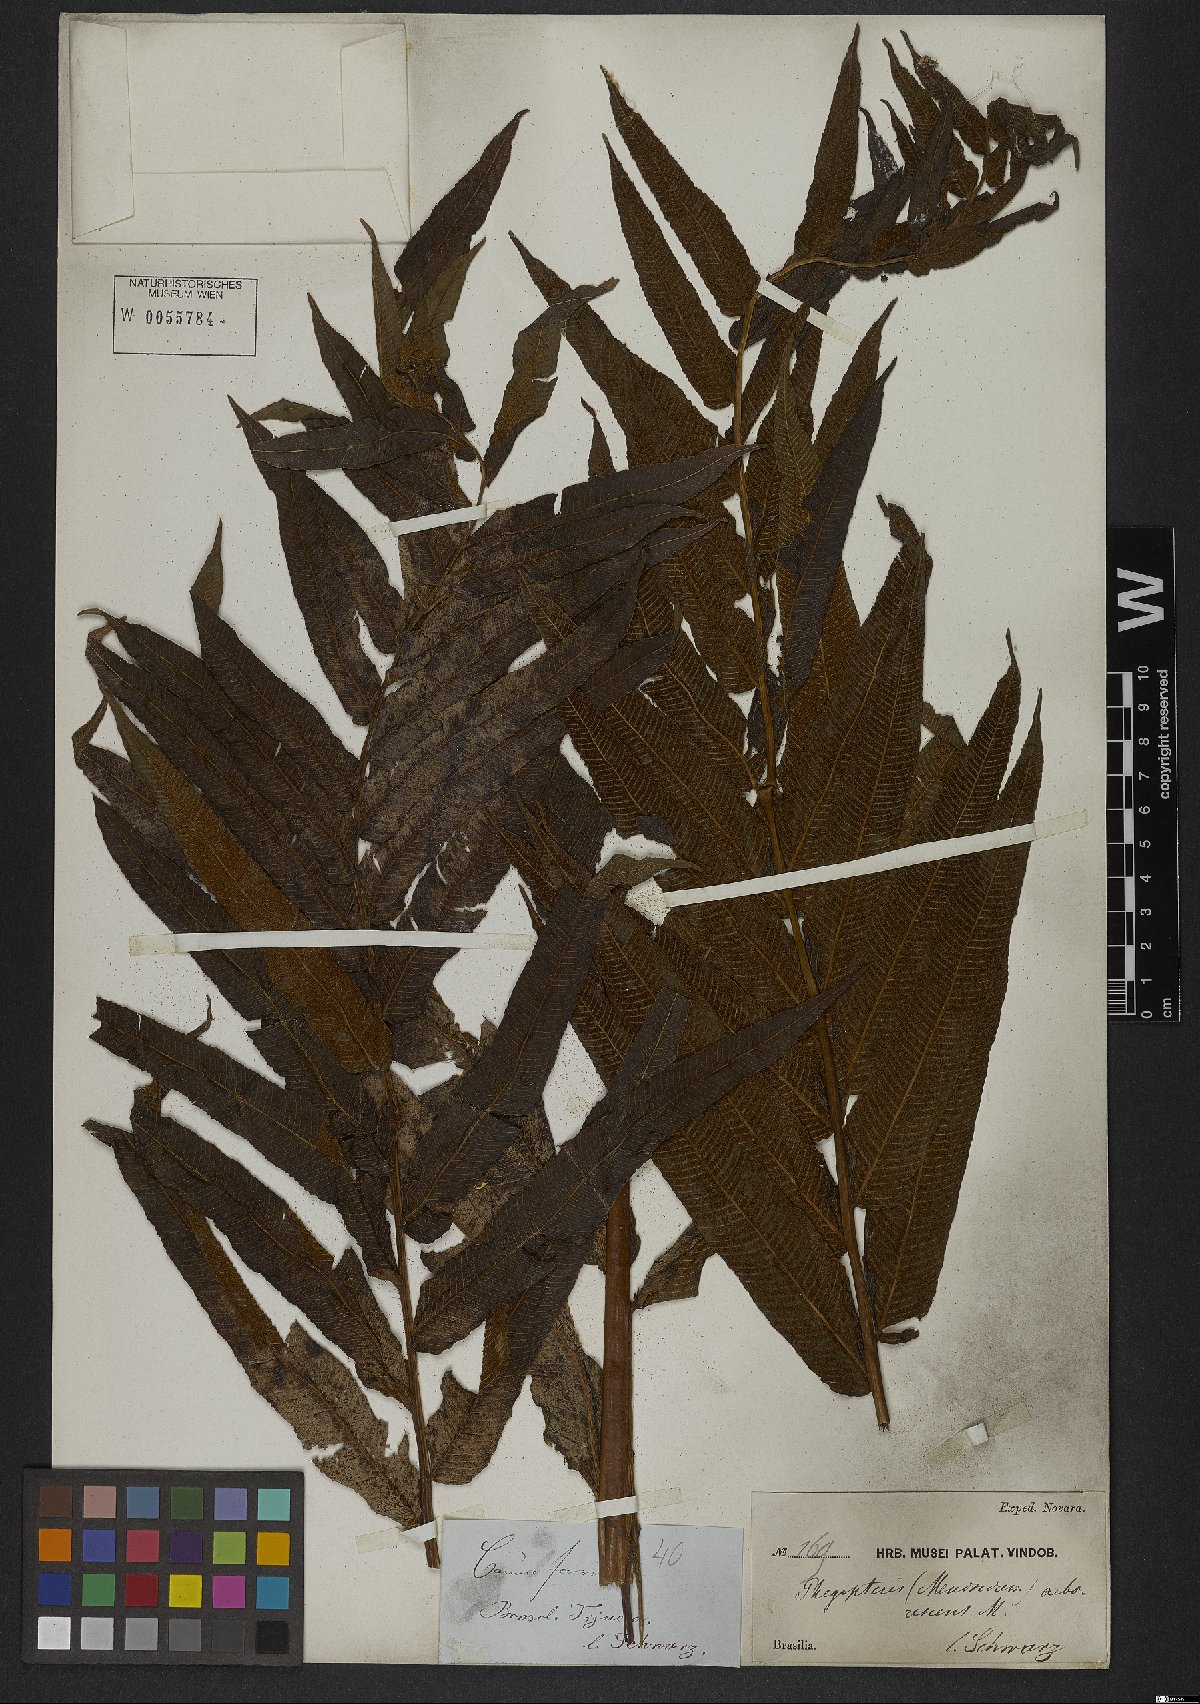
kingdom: Plantae
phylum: Tracheophyta
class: Polypodiopsida
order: Polypodiales
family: Thelypteridaceae
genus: Meniscium
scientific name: Meniscium reticulatum
